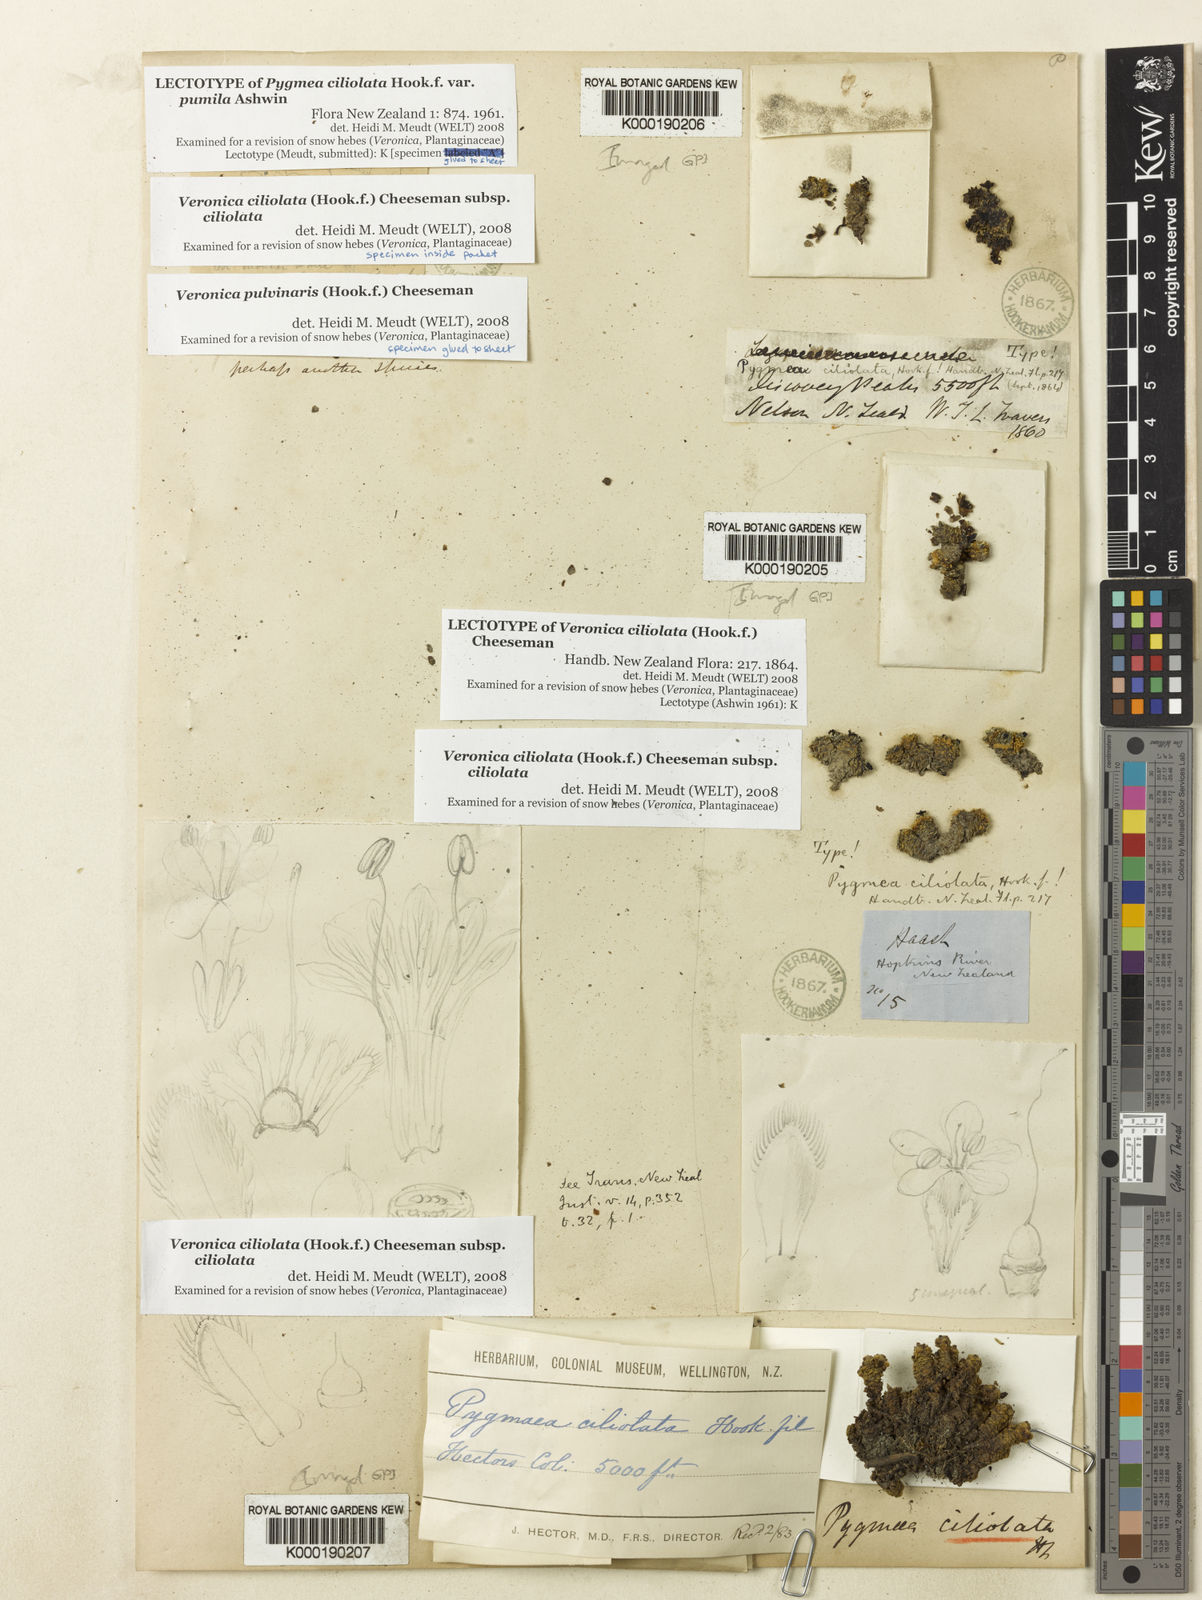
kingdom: Plantae
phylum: Tracheophyta
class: Magnoliopsida
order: Lamiales
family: Plantaginaceae
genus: Veronica
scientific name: Veronica ciliolata
